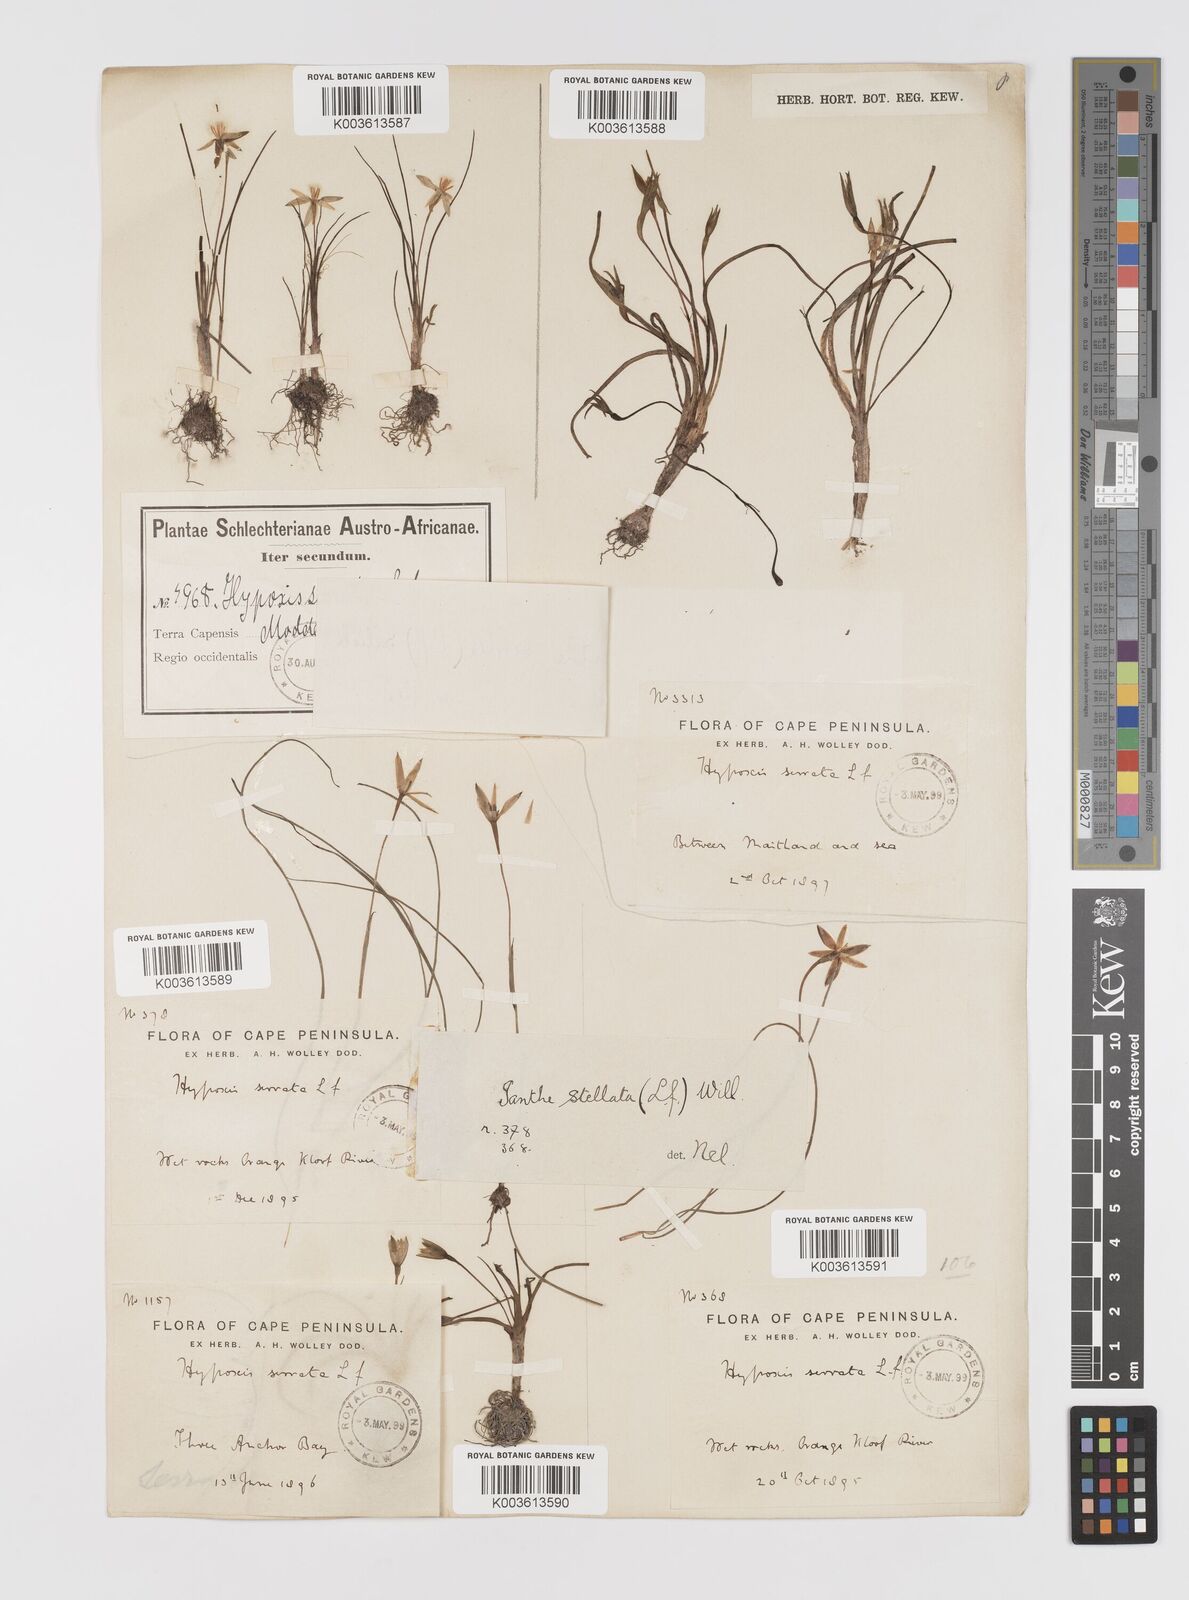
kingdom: Plantae
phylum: Tracheophyta
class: Liliopsida
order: Asparagales
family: Hypoxidaceae
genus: Pauridia
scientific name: Pauridia serrata
